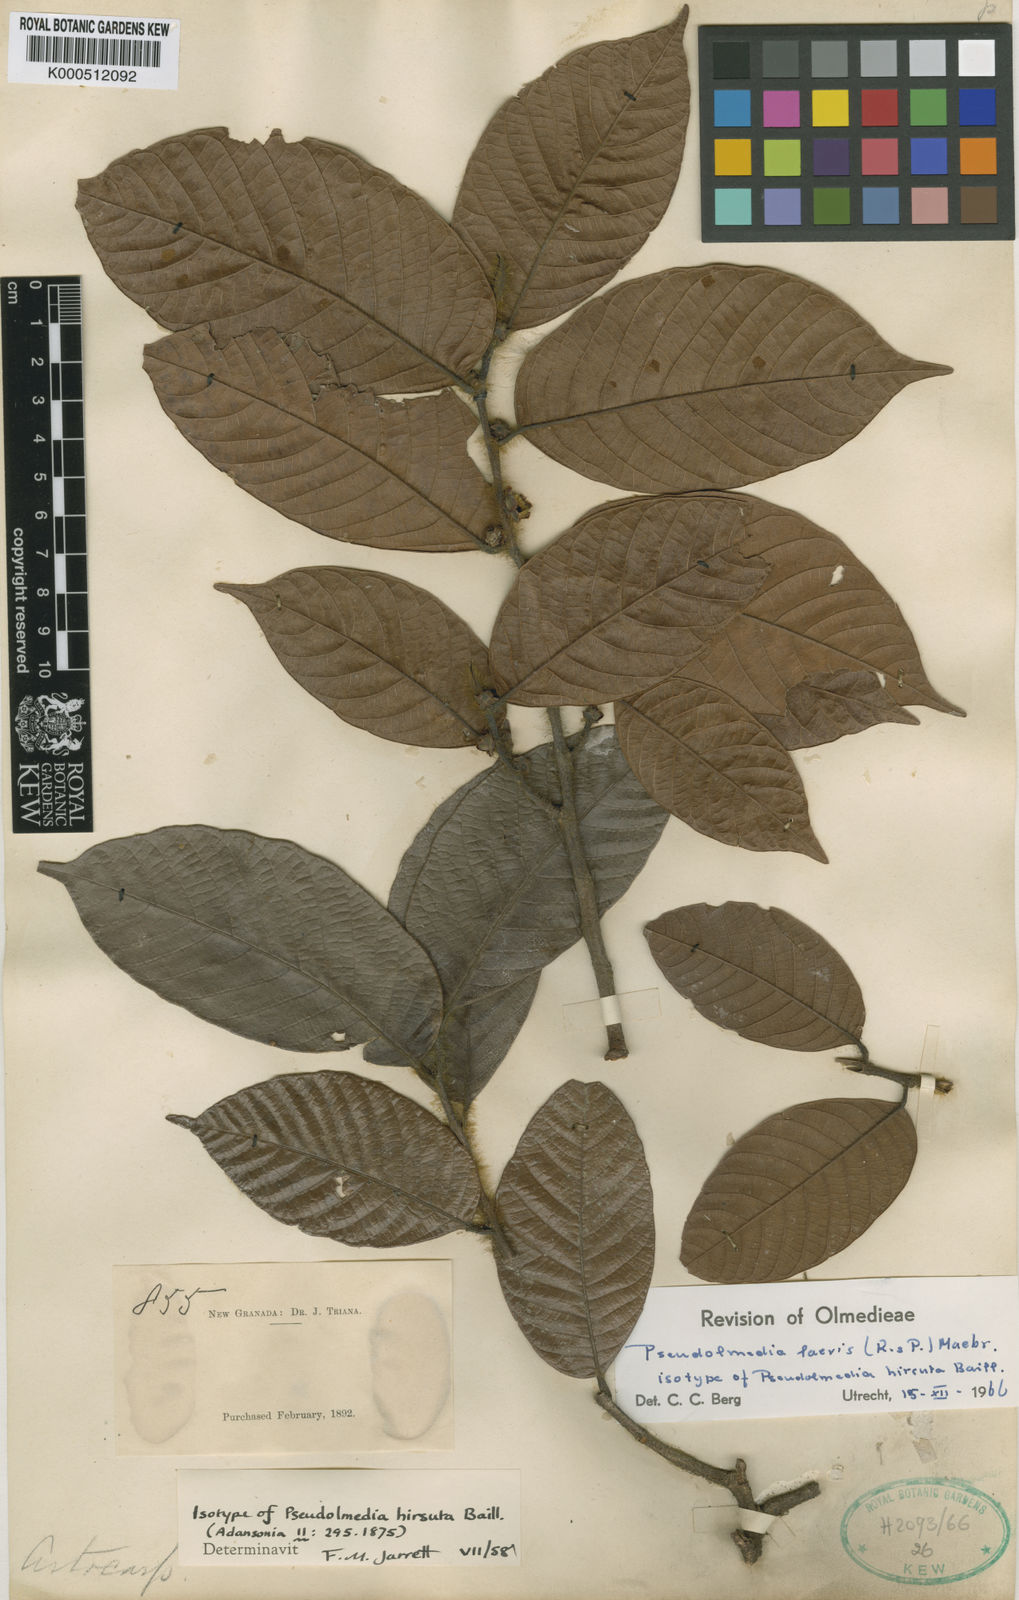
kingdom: Plantae
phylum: Tracheophyta
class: Magnoliopsida
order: Rosales
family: Moraceae
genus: Pseudolmedia
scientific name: Pseudolmedia laevis
